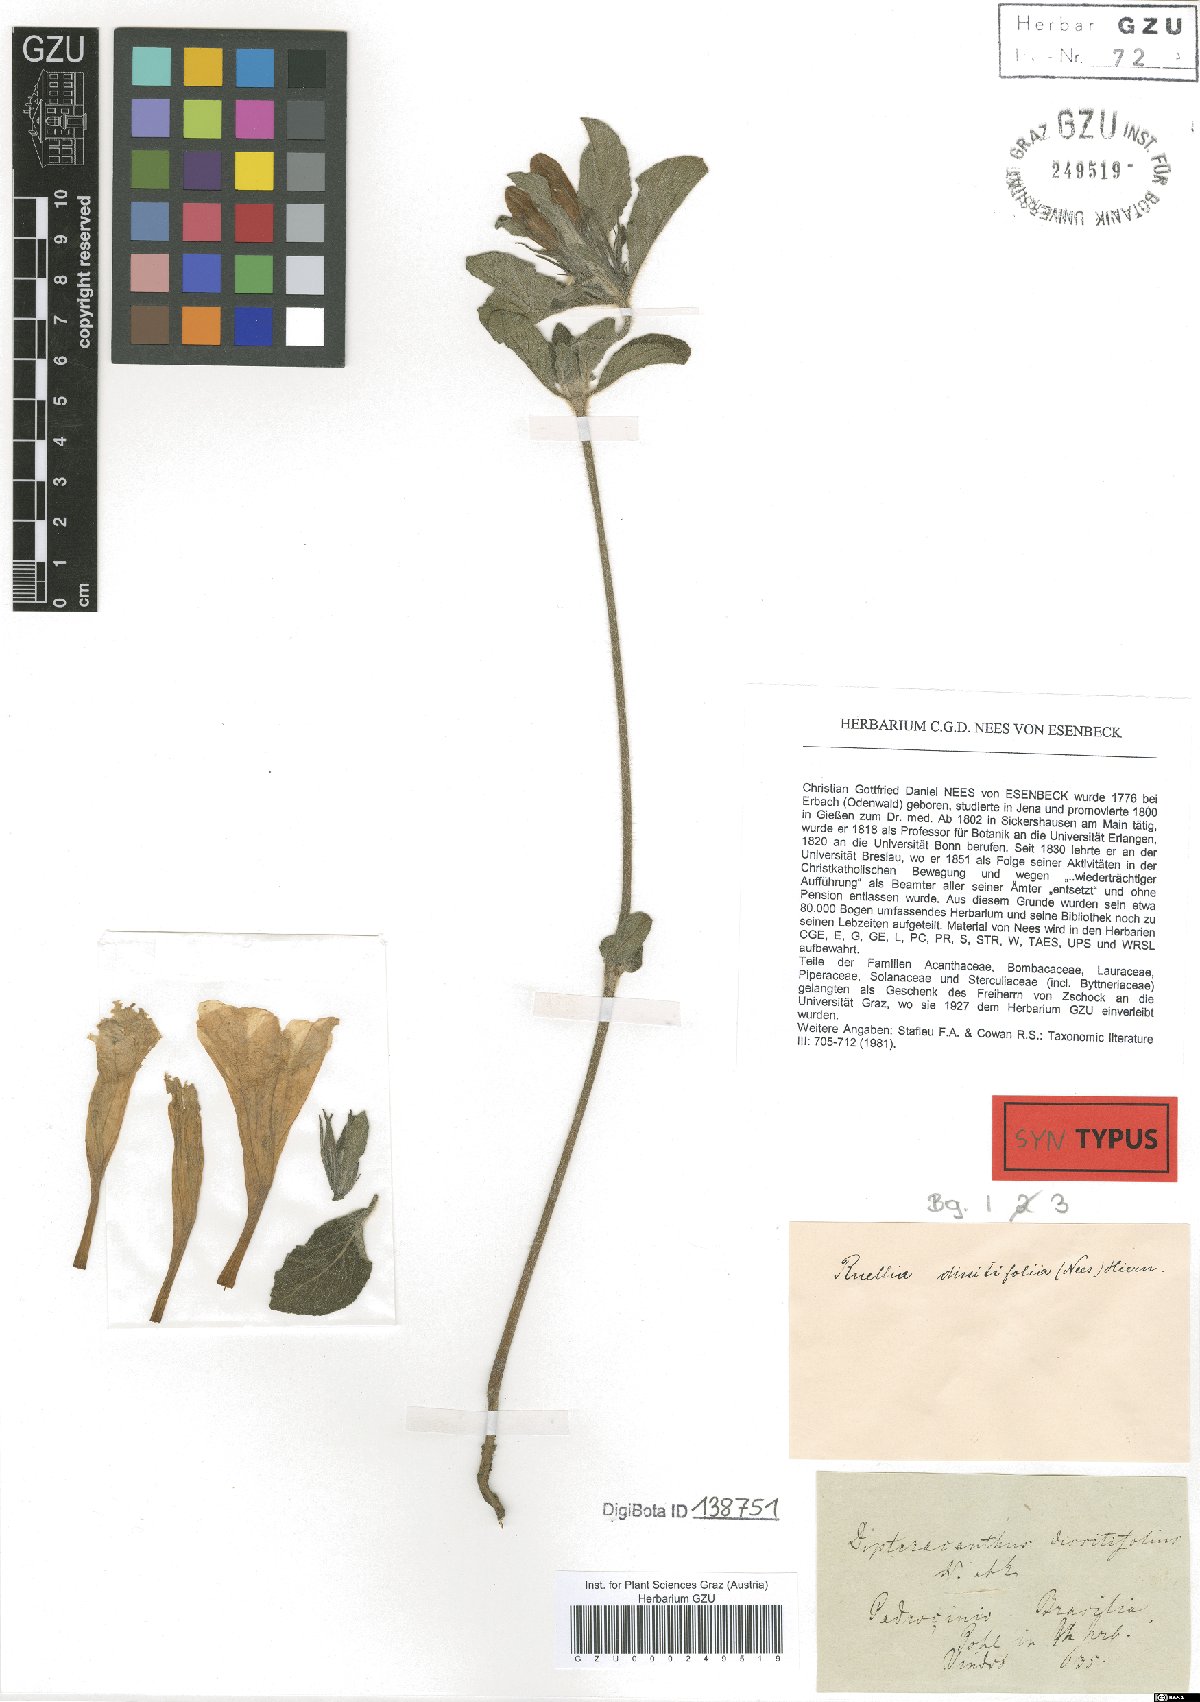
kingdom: Plantae
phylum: Tracheophyta
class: Magnoliopsida
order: Lamiales
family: Acanthaceae
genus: Ruellia
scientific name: Ruellia dissitifolia
